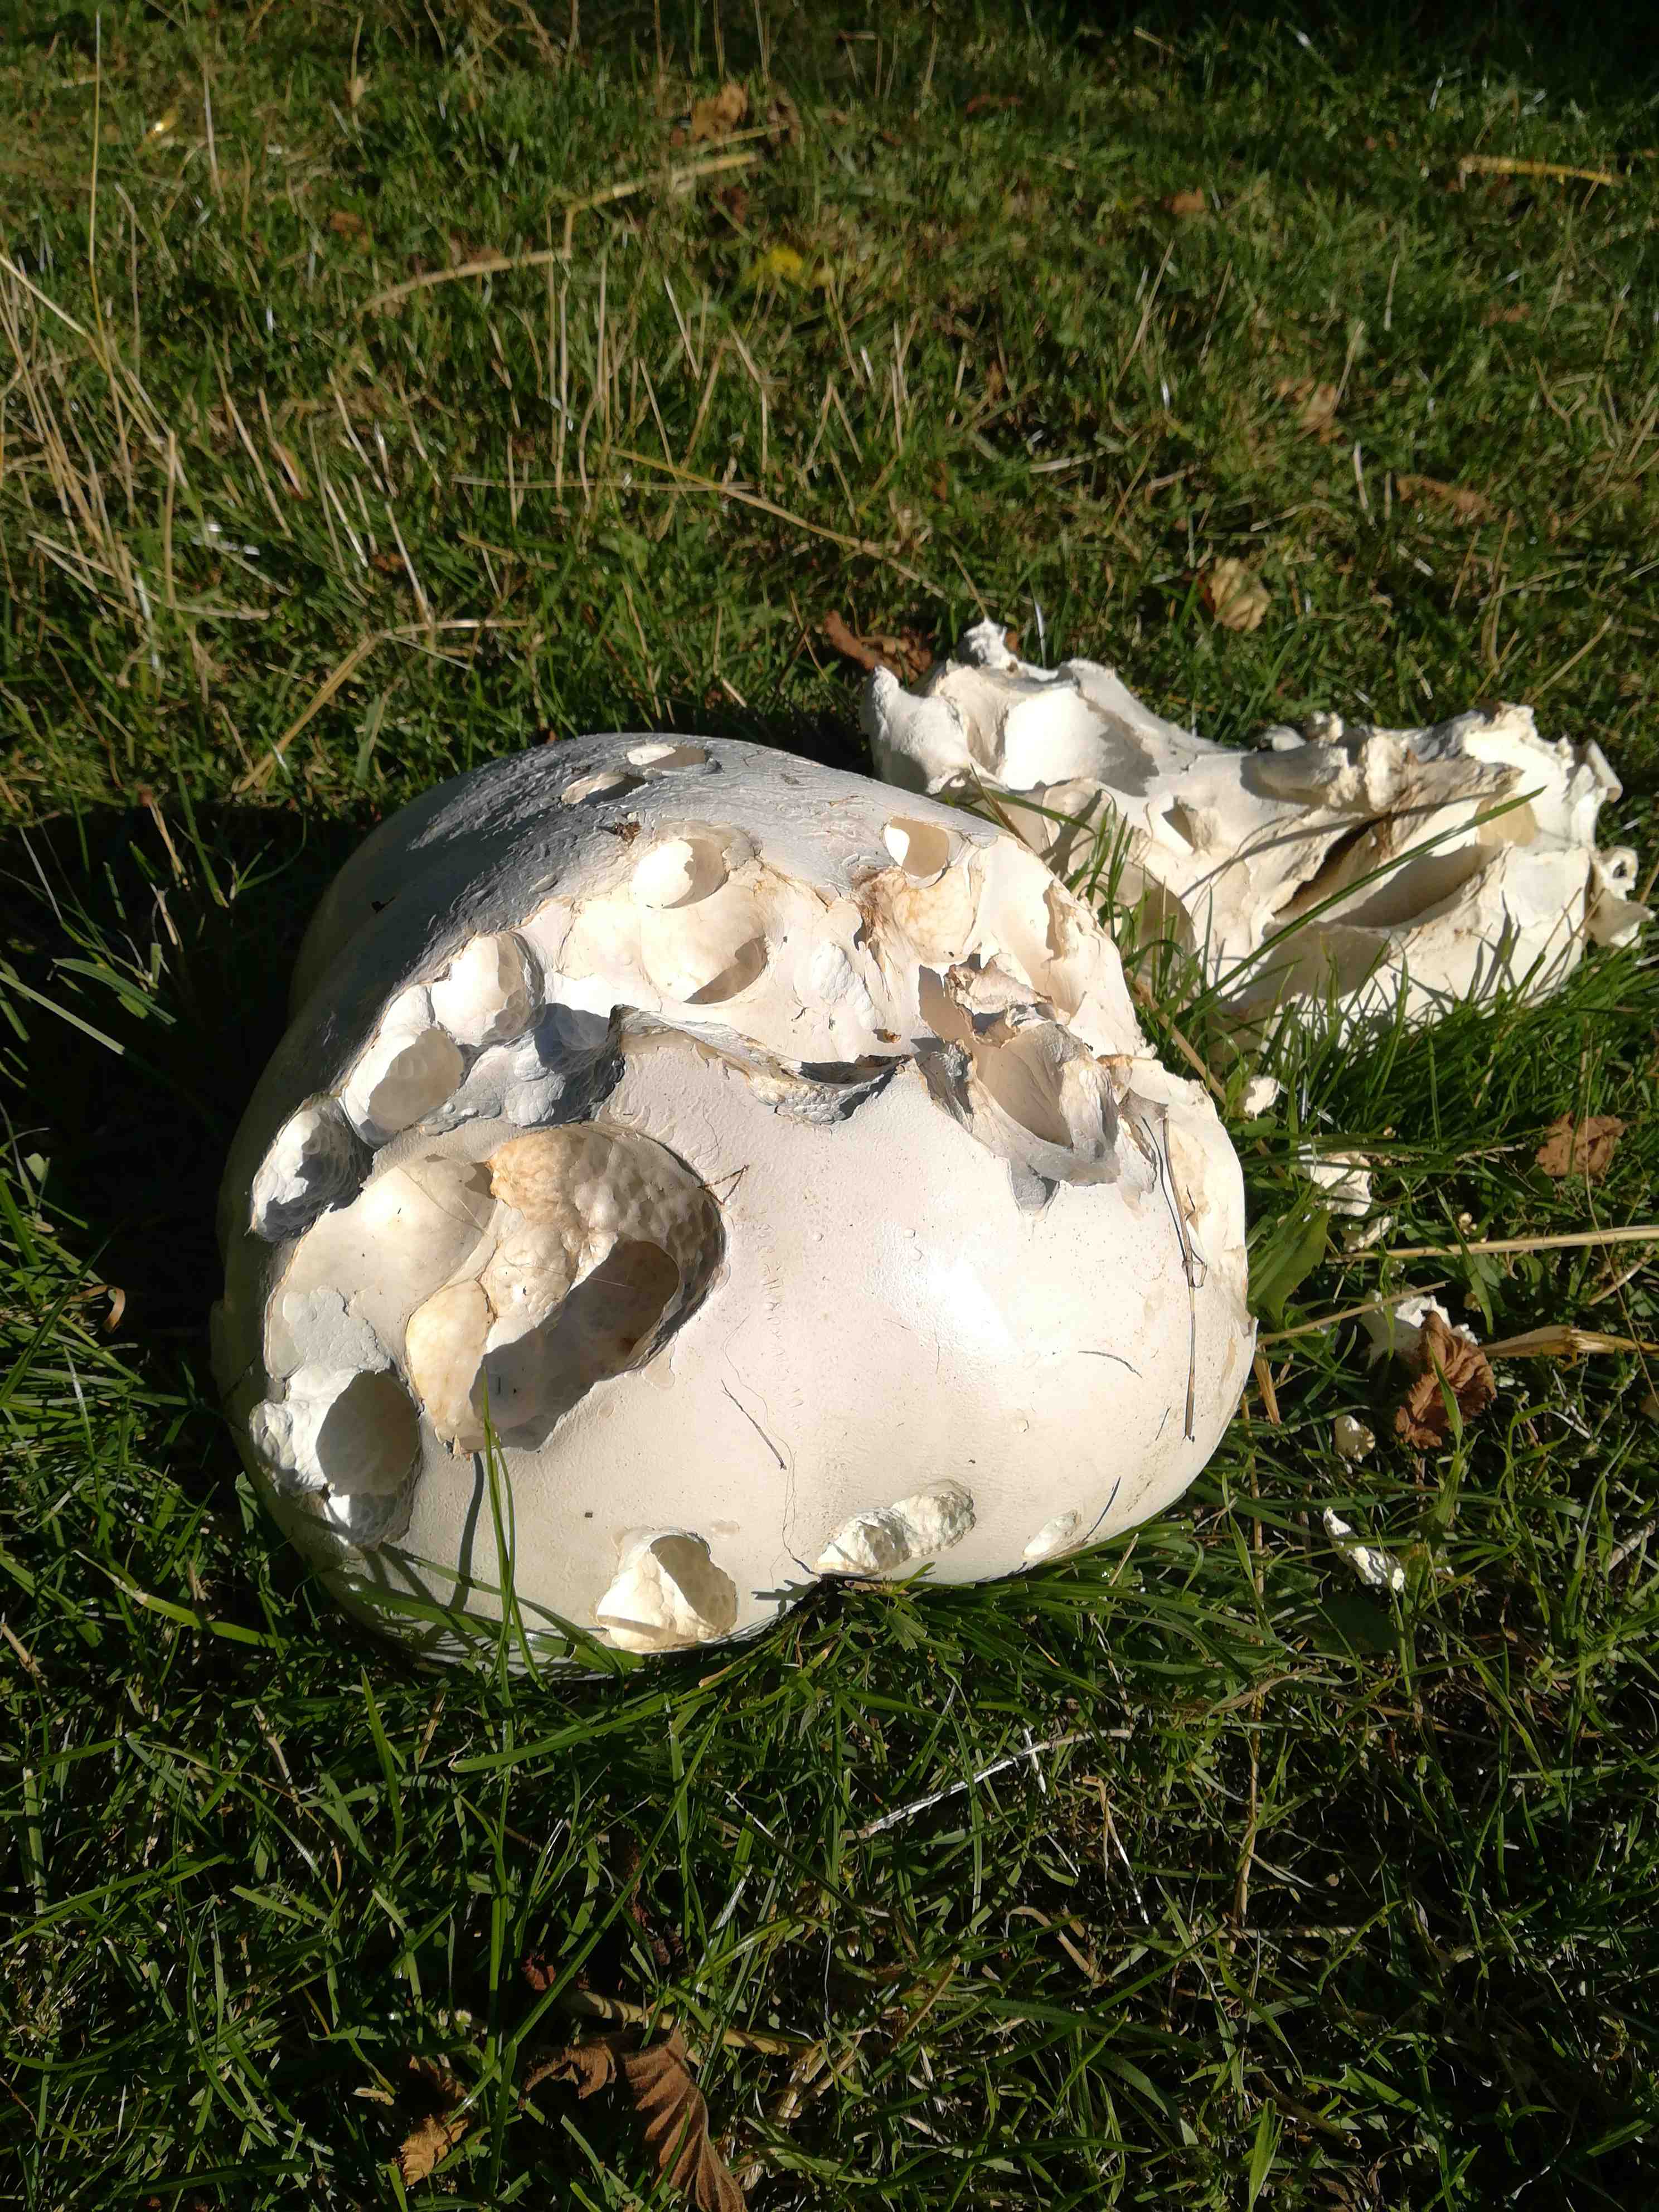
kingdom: Fungi
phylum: Basidiomycota
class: Agaricomycetes
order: Agaricales
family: Lycoperdaceae
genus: Calvatia
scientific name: Calvatia gigantea
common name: kæmpestøvbold
